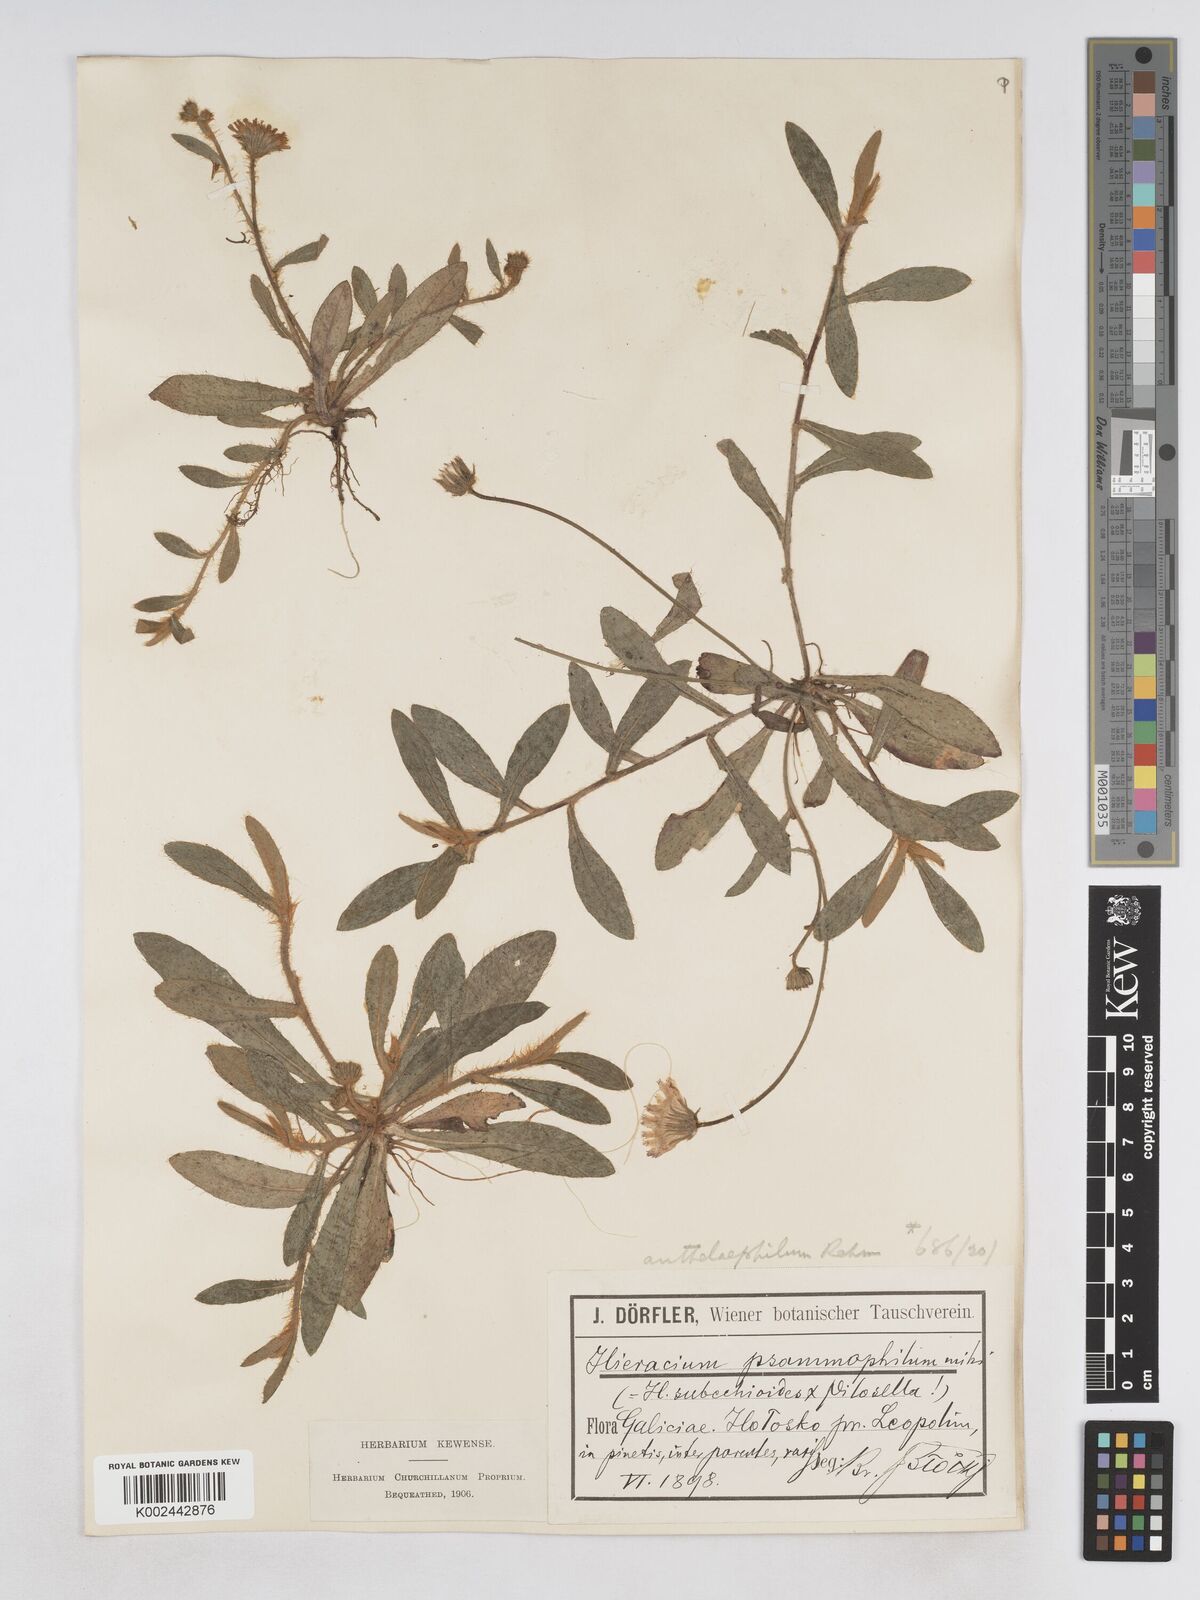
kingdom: Plantae
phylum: Tracheophyta
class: Magnoliopsida
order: Asterales
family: Asteraceae
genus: Pilosella
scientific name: Pilosella bifurca
